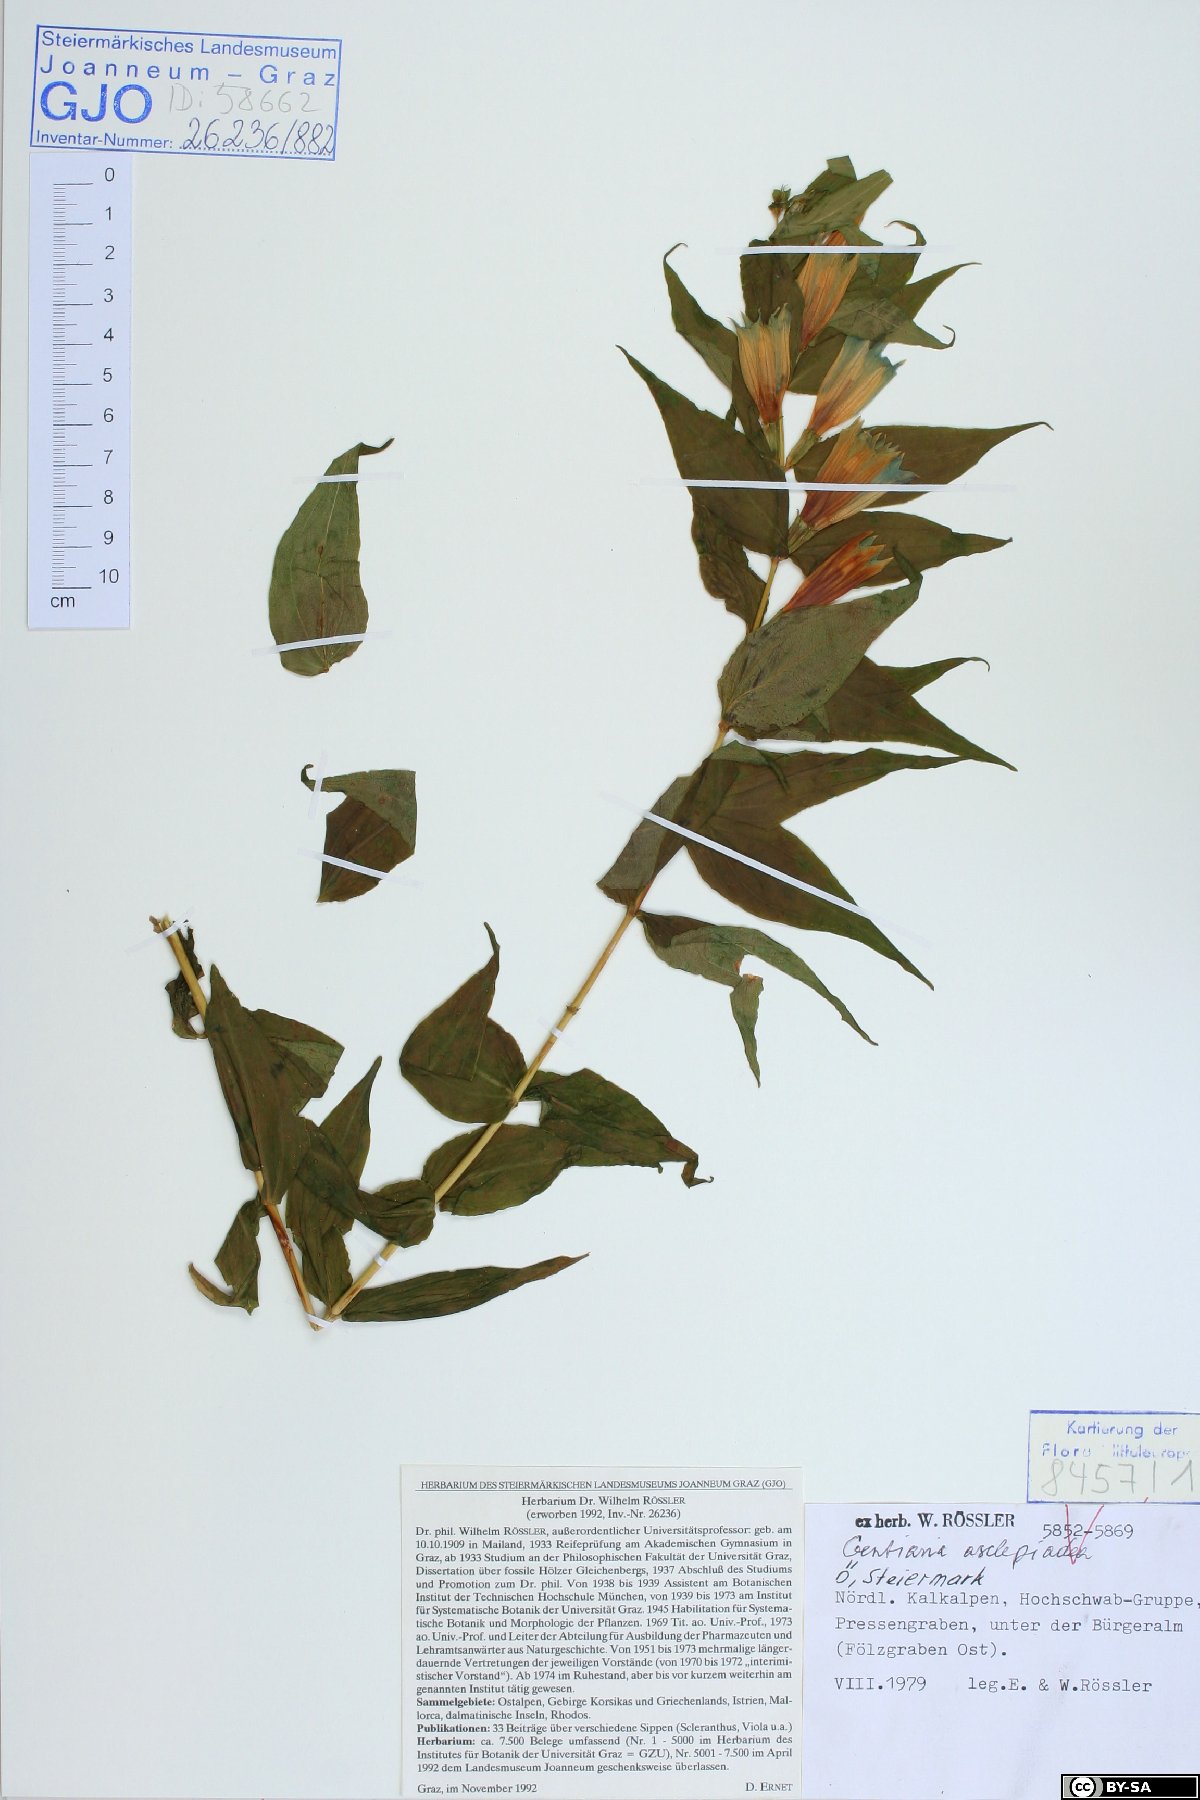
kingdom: Plantae
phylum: Tracheophyta
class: Magnoliopsida
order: Gentianales
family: Gentianaceae
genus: Gentiana
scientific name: Gentiana asclepiadea
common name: Willow gentian
